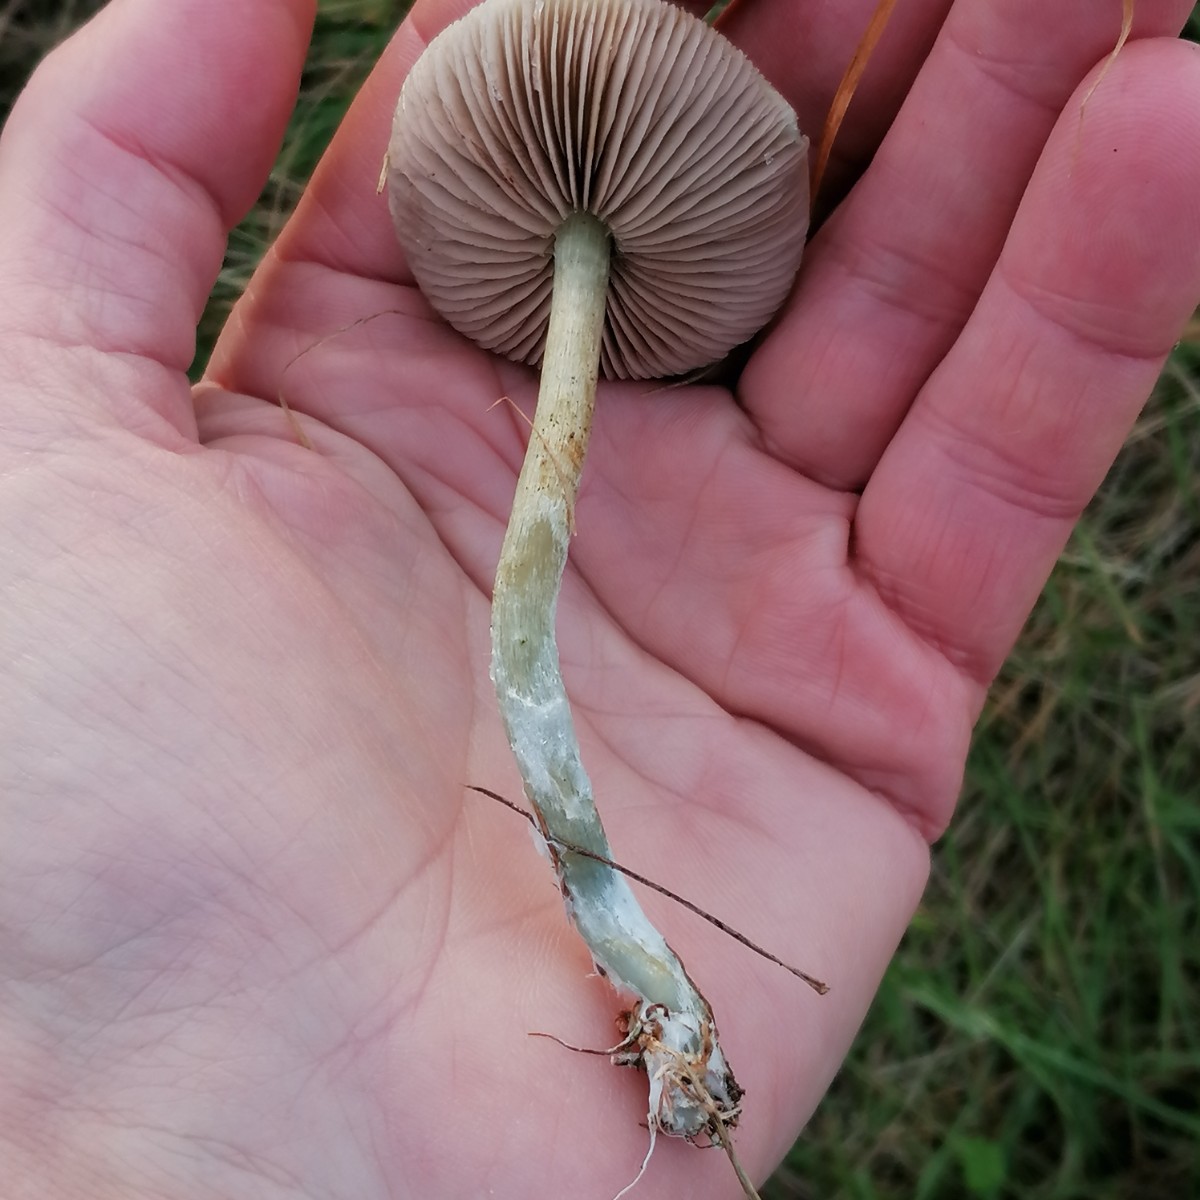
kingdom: Fungi
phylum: Basidiomycota
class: Agaricomycetes
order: Agaricales
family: Strophariaceae
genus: Stropharia
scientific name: Stropharia cyanea
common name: blågrøn bredblad
